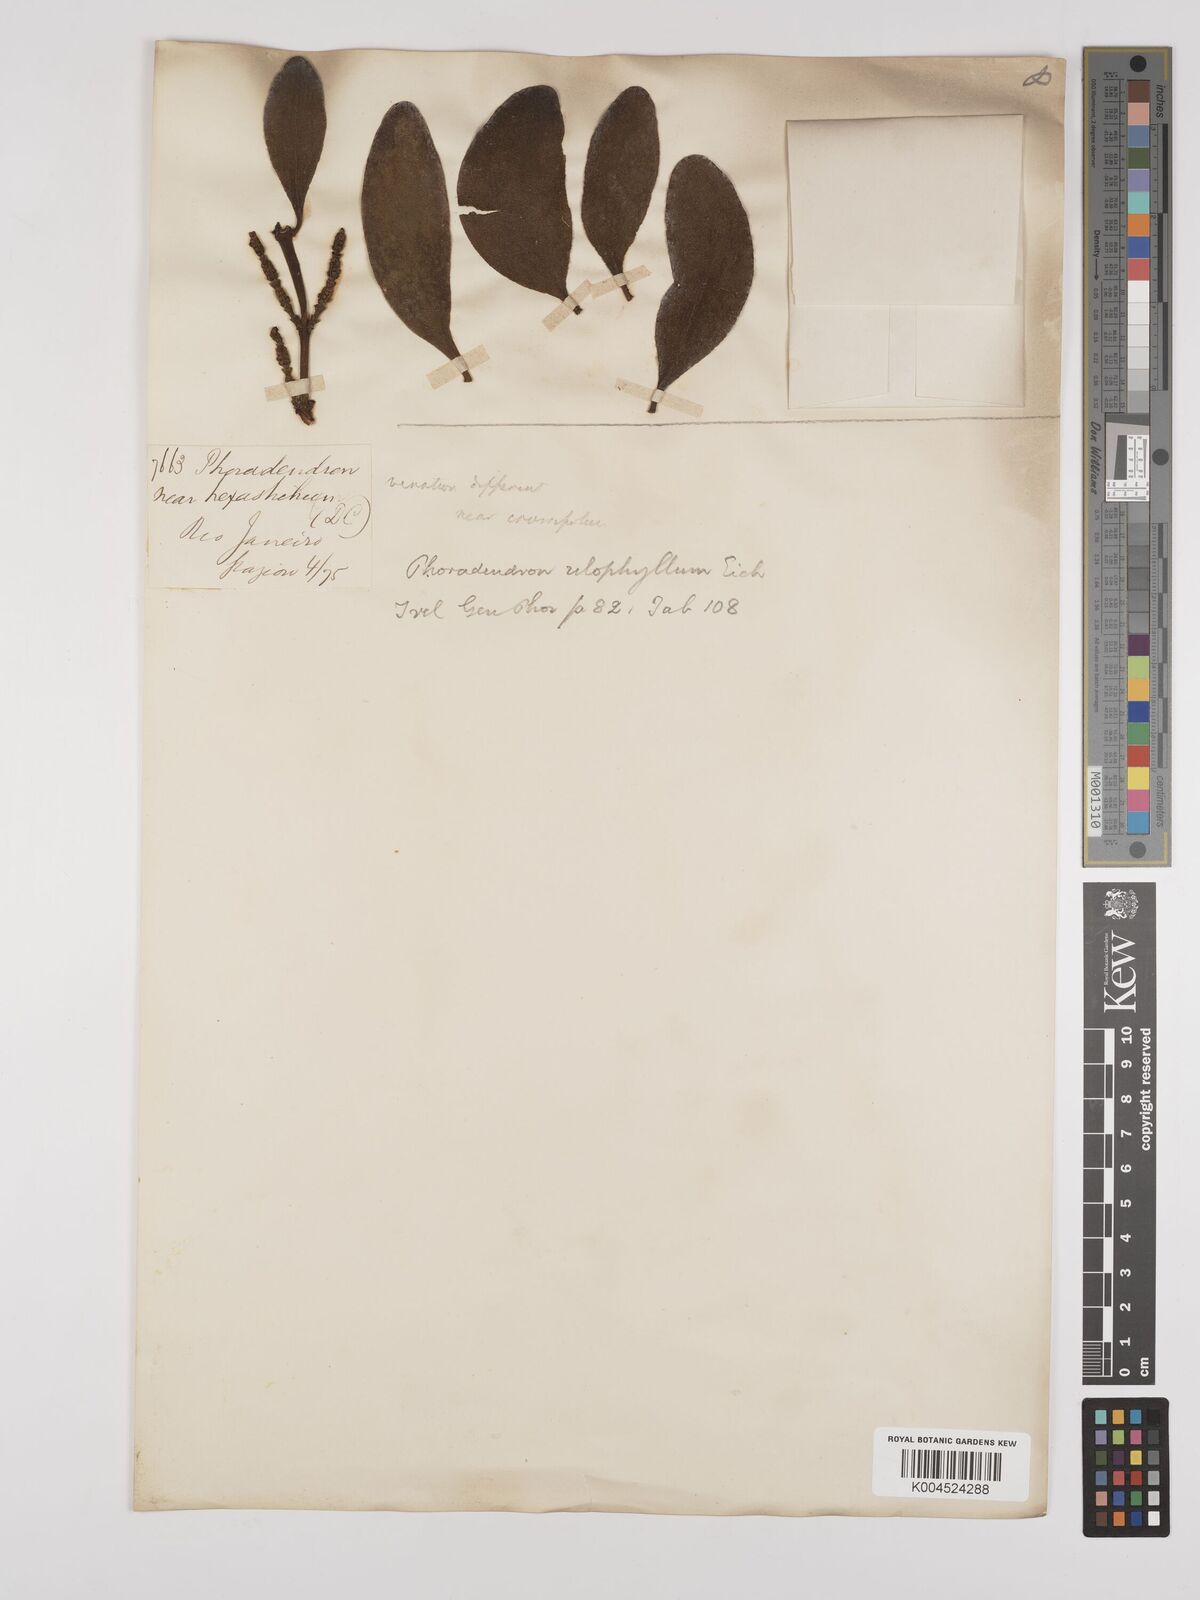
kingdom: Plantae
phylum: Tracheophyta
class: Magnoliopsida
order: Santalales
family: Viscaceae
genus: Phoradendron
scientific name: Phoradendron bathyoryctum
